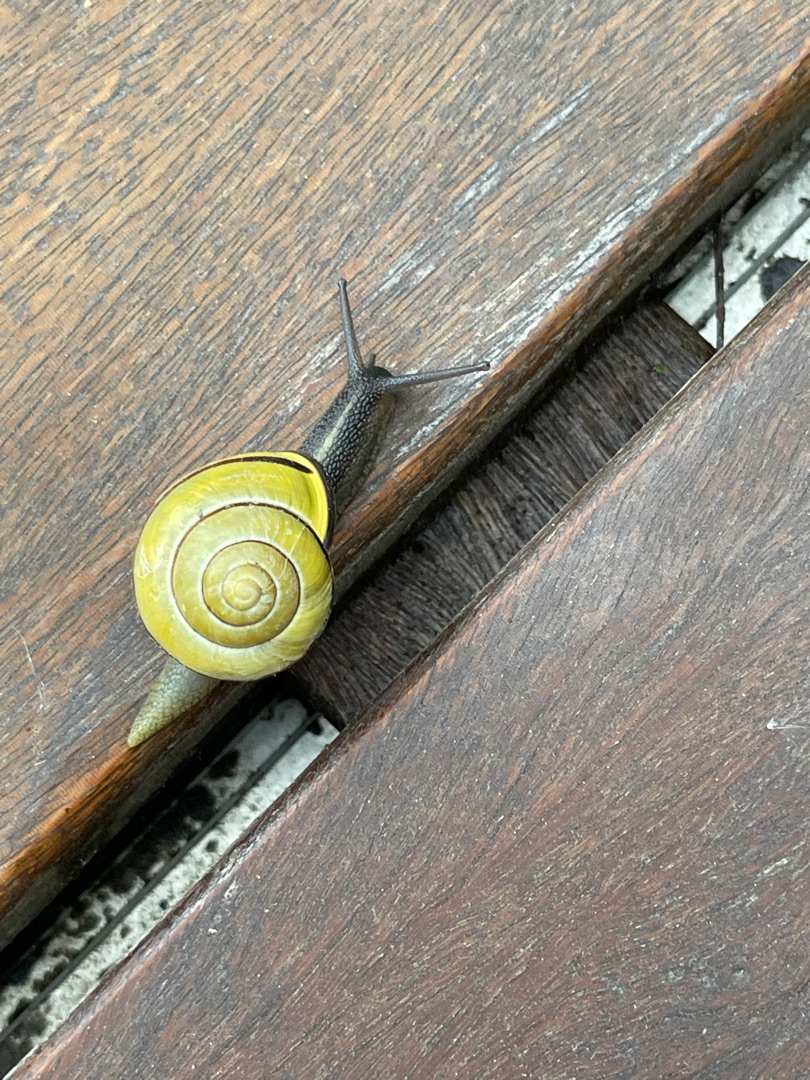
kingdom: Animalia
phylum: Mollusca
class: Gastropoda
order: Stylommatophora
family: Helicidae
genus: Cepaea
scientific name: Cepaea nemoralis
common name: Lundsnegl
